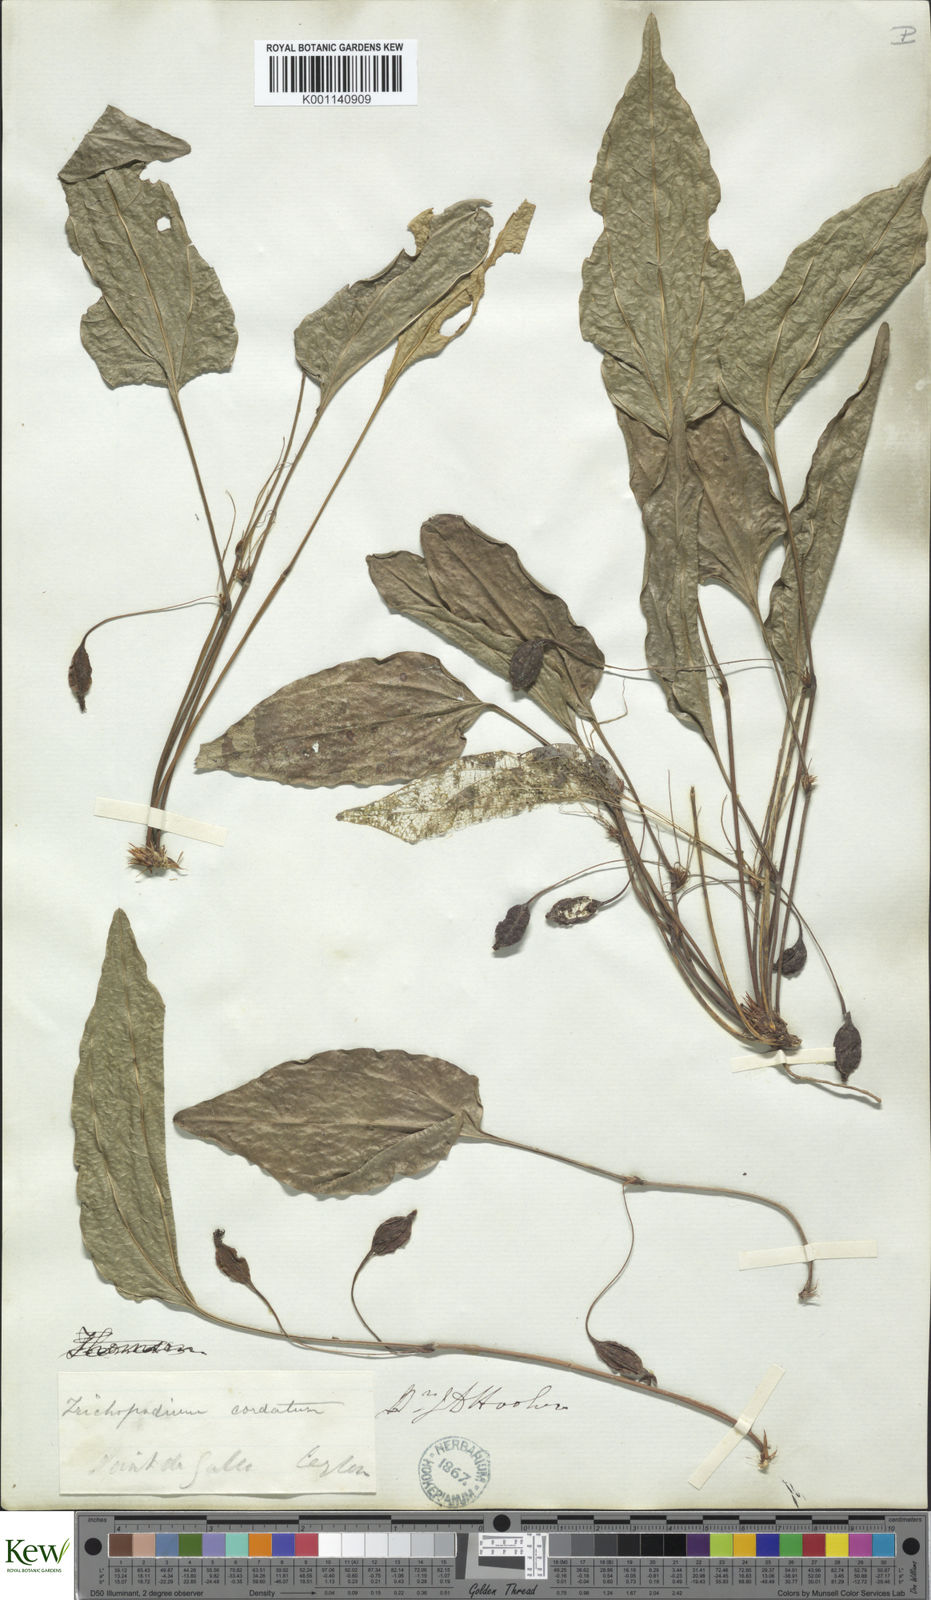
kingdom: Plantae
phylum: Tracheophyta
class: Liliopsida
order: Dioscoreales
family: Dioscoreaceae
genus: Trichopus
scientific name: Trichopus zeylanicus
